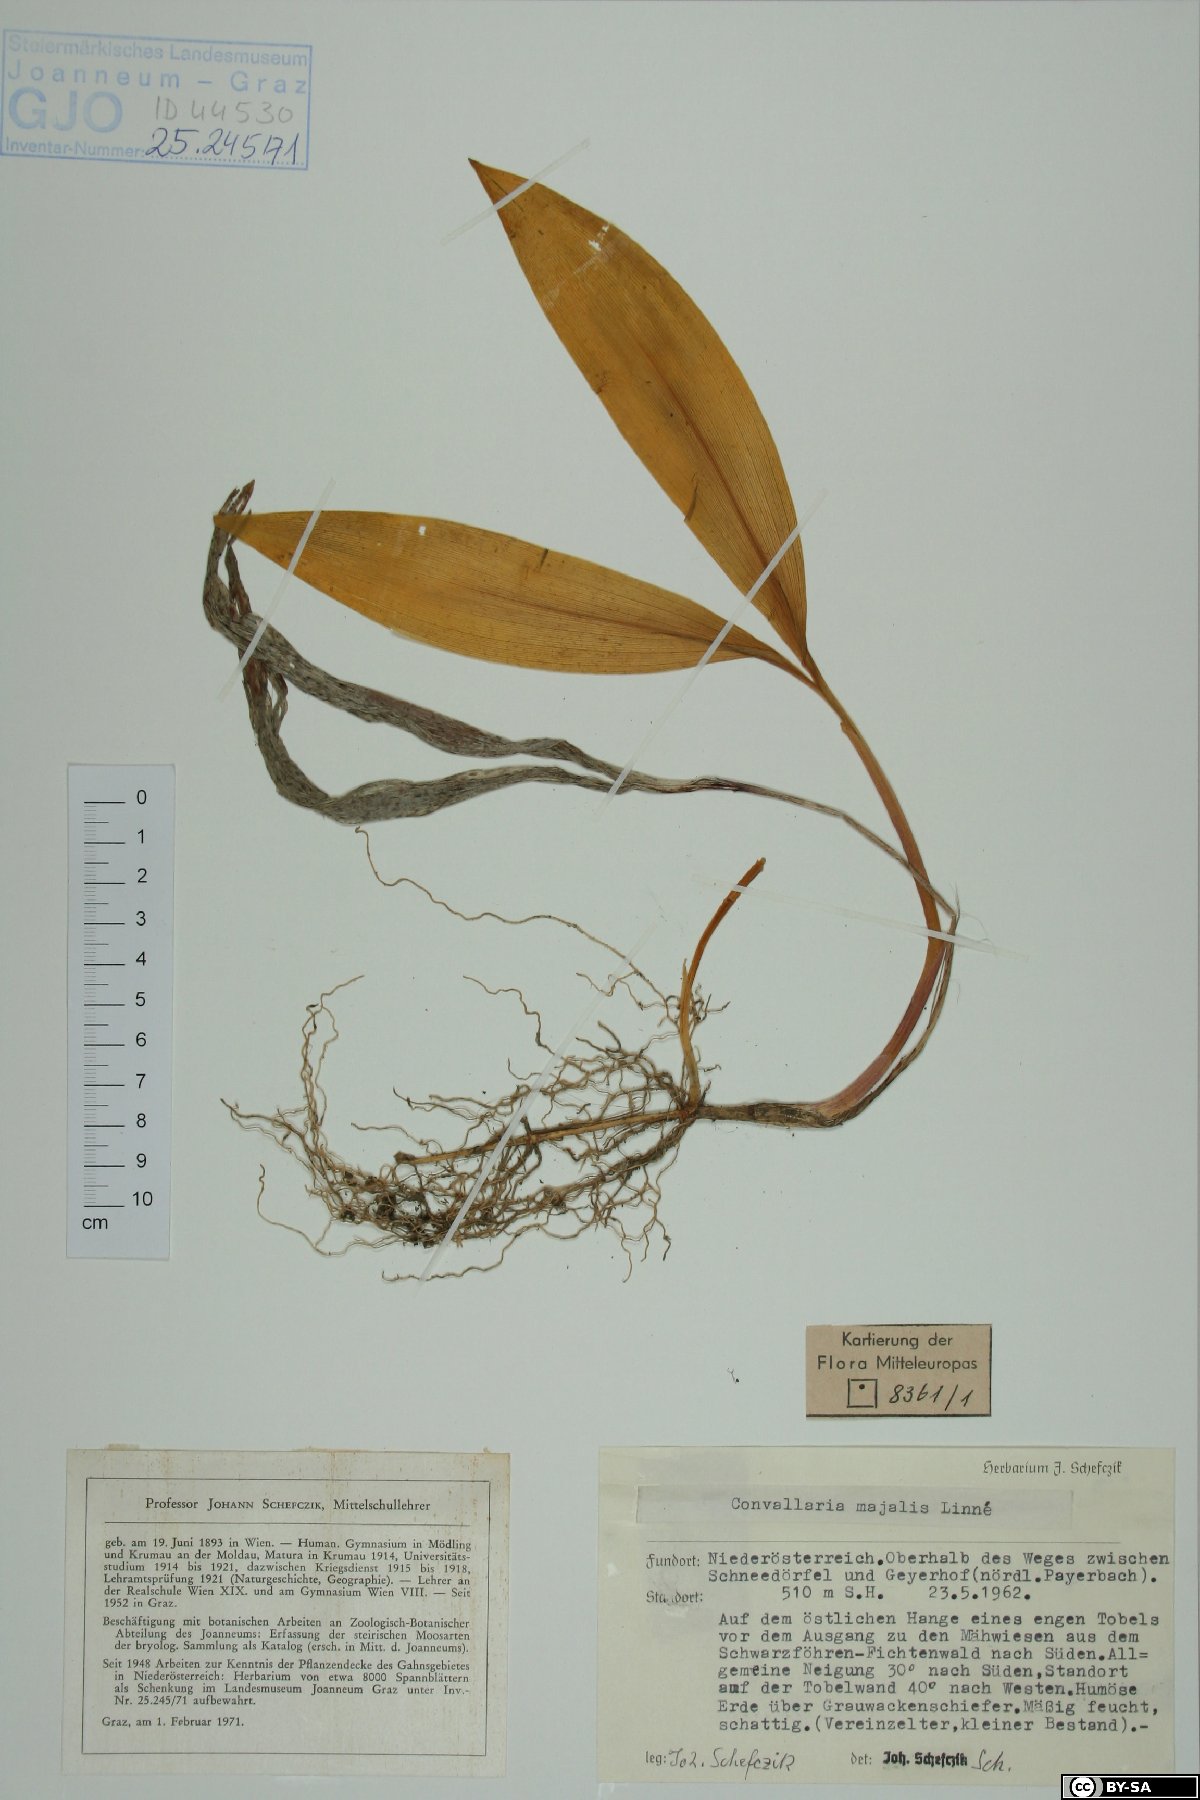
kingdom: Plantae
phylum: Tracheophyta
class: Liliopsida
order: Asparagales
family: Asparagaceae
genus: Convallaria
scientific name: Convallaria majalis
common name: Lily-of-the-valley
